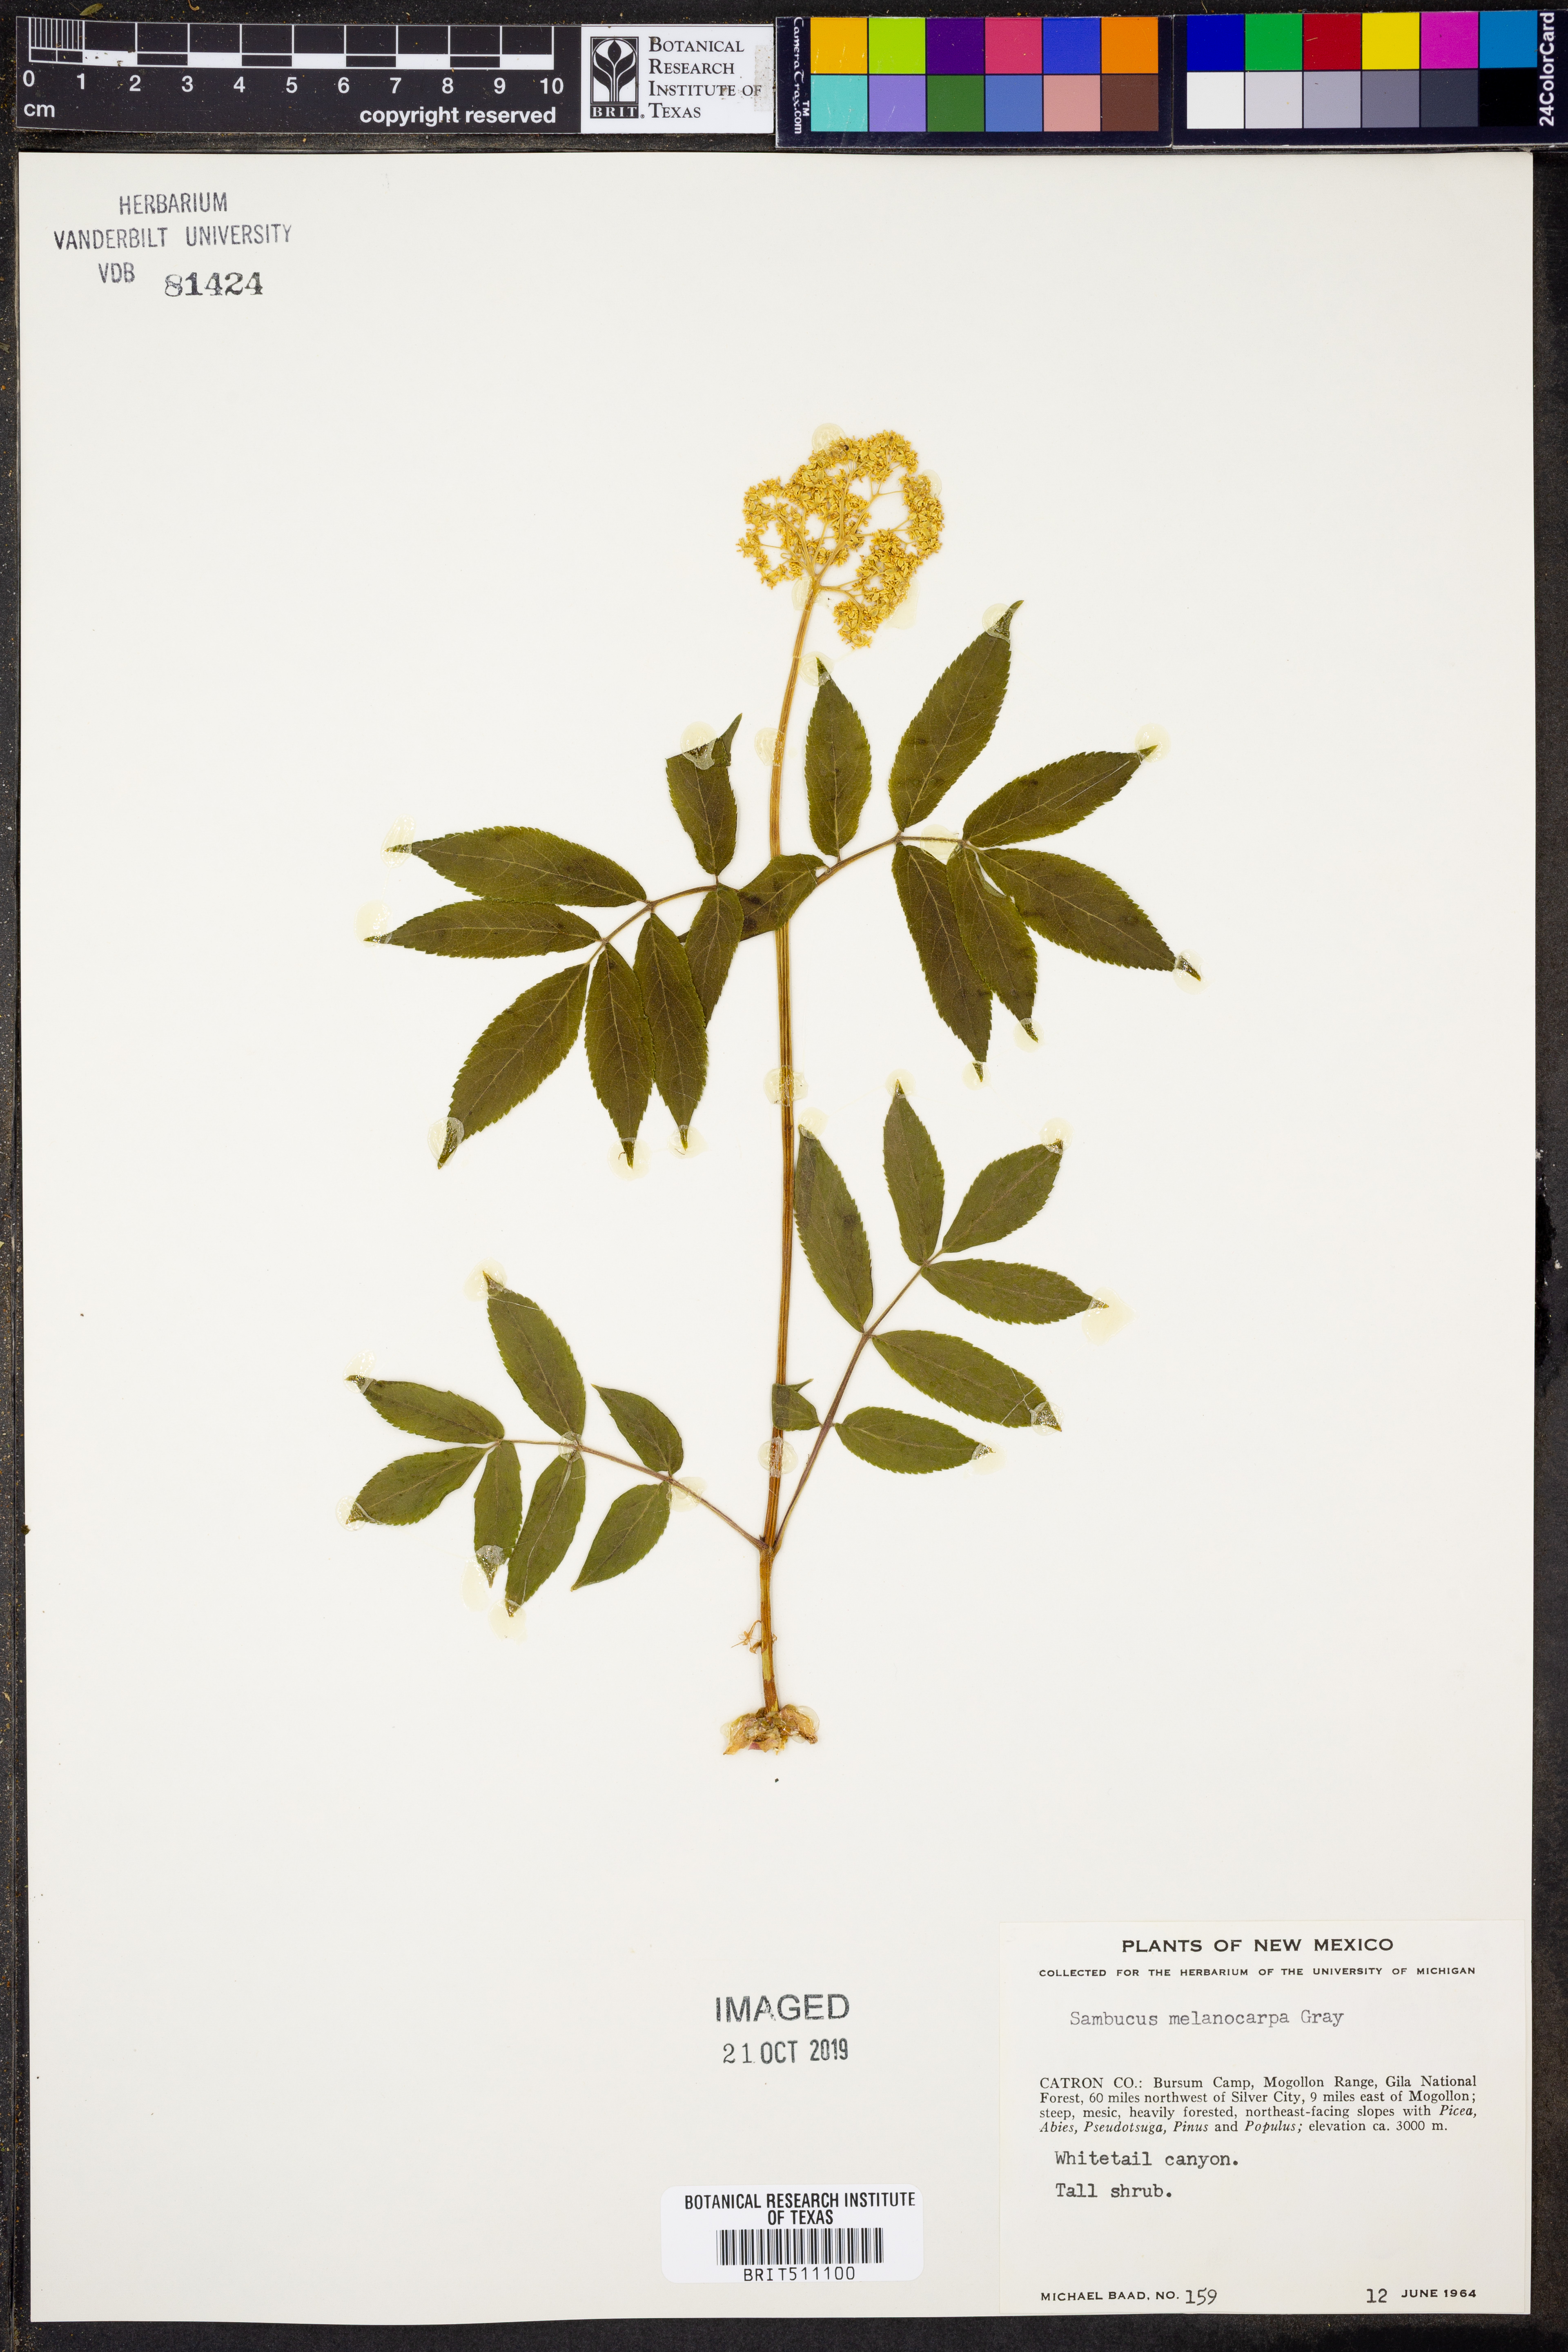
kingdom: Plantae
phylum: Tracheophyta
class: Magnoliopsida
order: Dipsacales
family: Viburnaceae
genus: Sambucus
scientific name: Sambucus racemosa
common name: Red-berried elder
